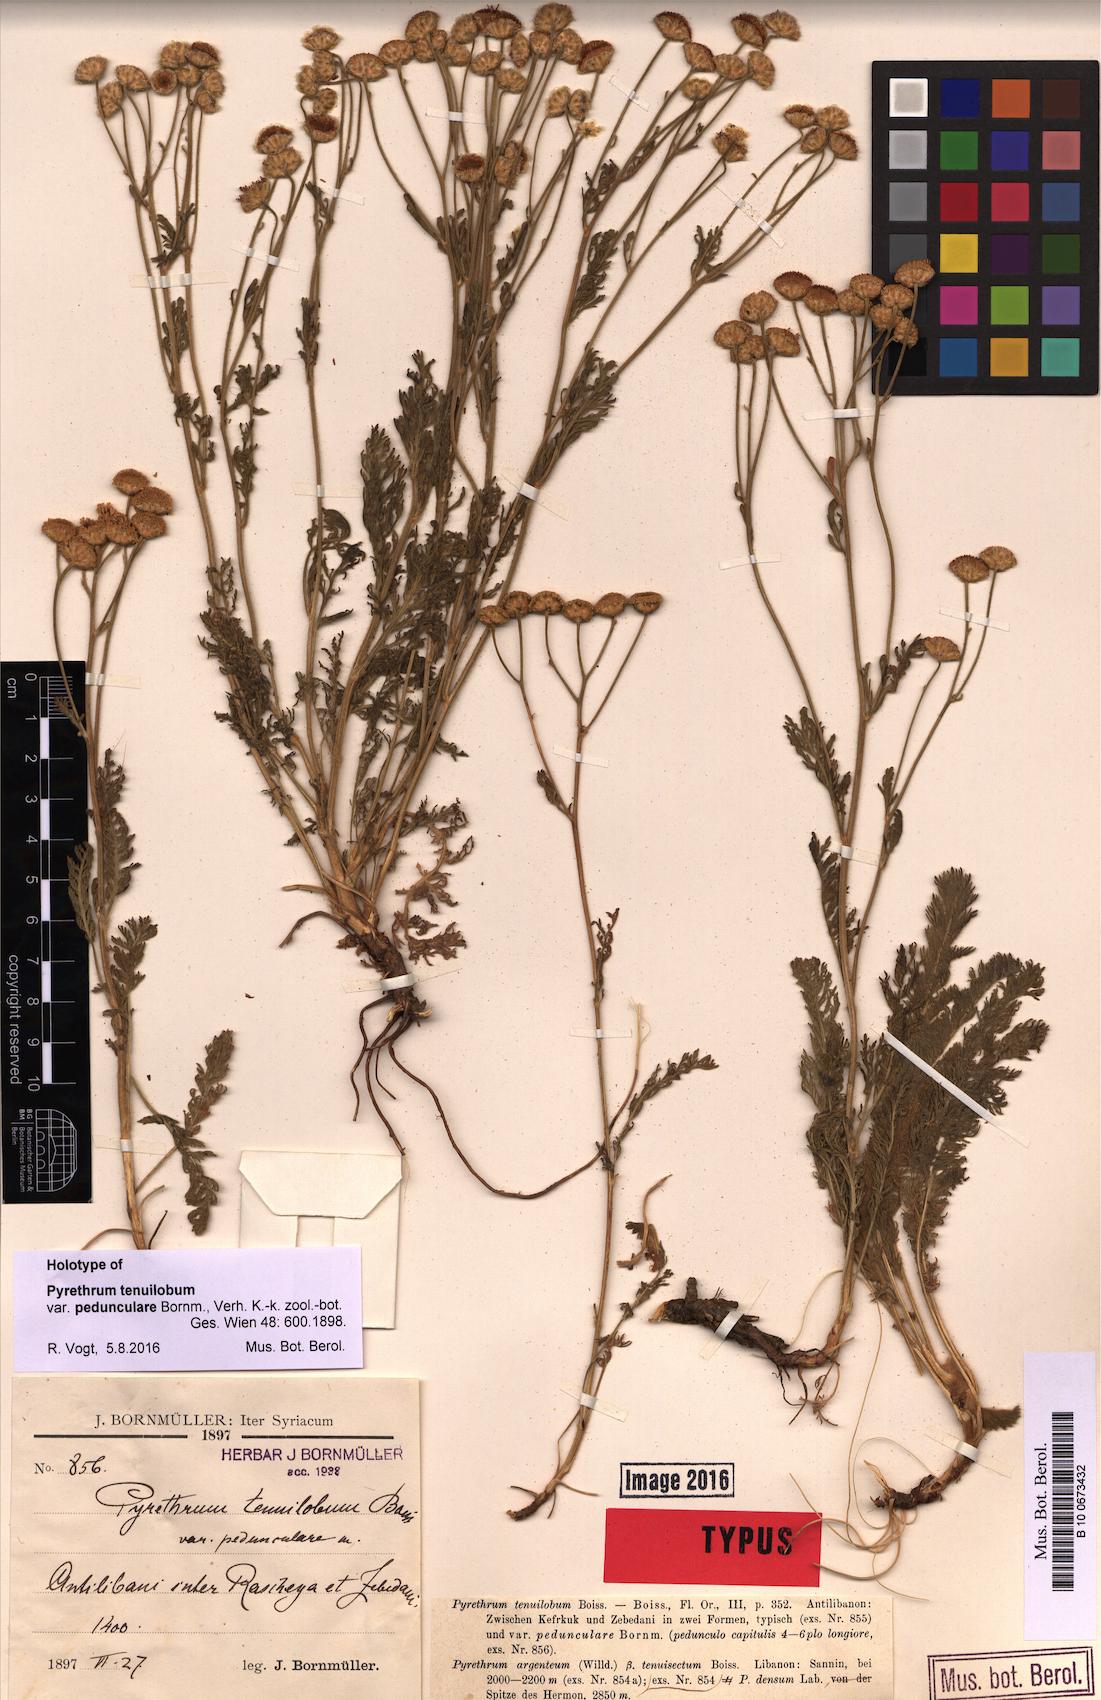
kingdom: Plantae
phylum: Tracheophyta
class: Magnoliopsida
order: Asterales
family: Asteraceae
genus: Tanacetum
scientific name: Tanacetum aucheri
